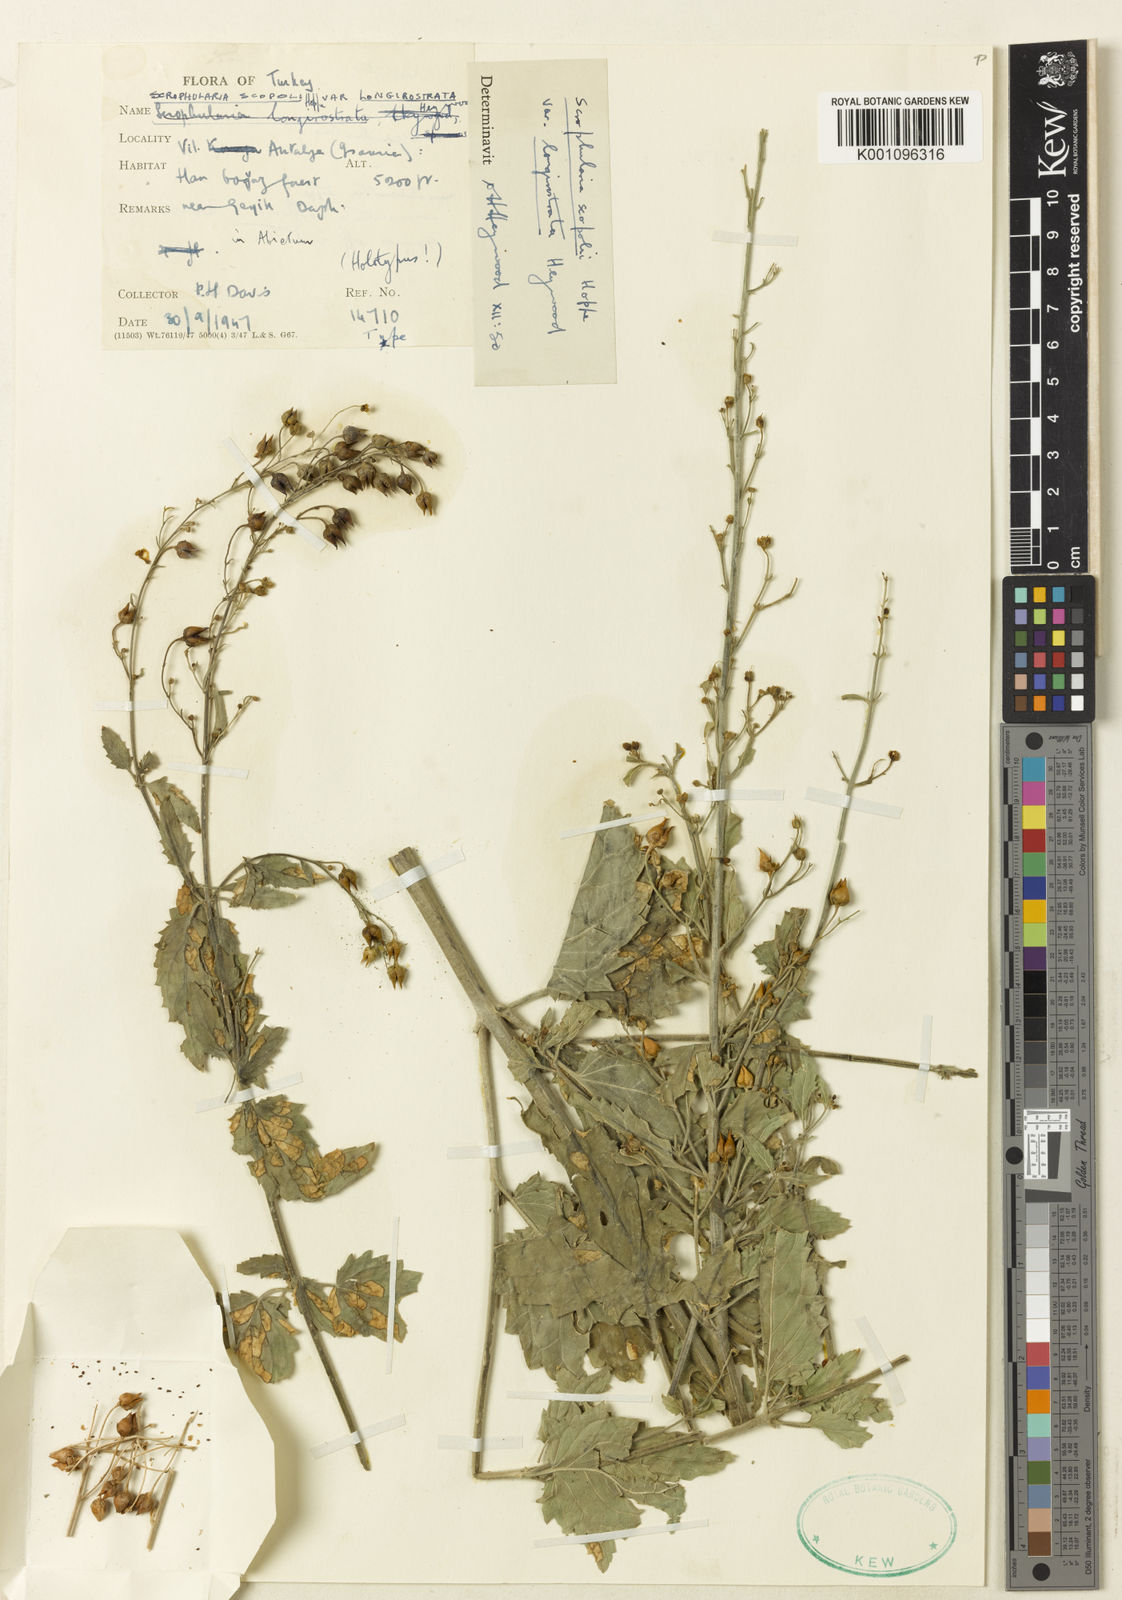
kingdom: Plantae
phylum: Tracheophyta
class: Magnoliopsida
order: Lamiales
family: Scrophulariaceae
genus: Scrophularia
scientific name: Scrophularia
